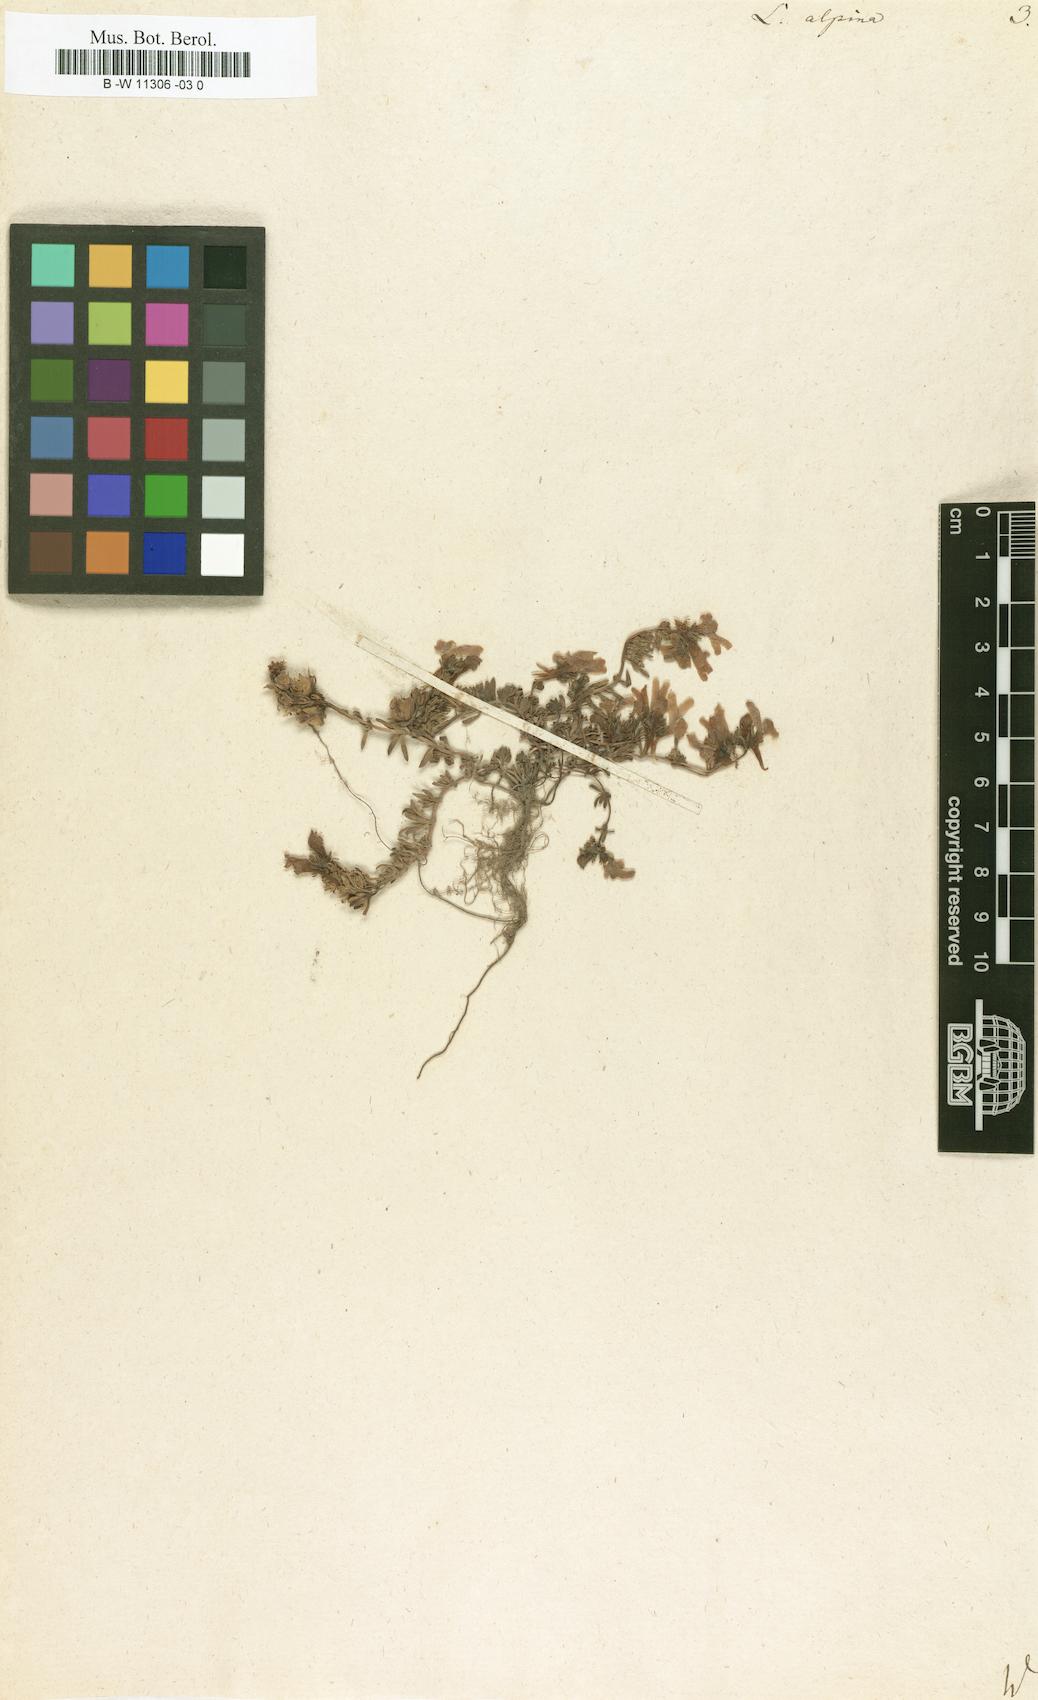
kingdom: Plantae
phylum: Tracheophyta
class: Magnoliopsida
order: Lamiales
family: Plantaginaceae
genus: Linaria
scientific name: Linaria alpina
